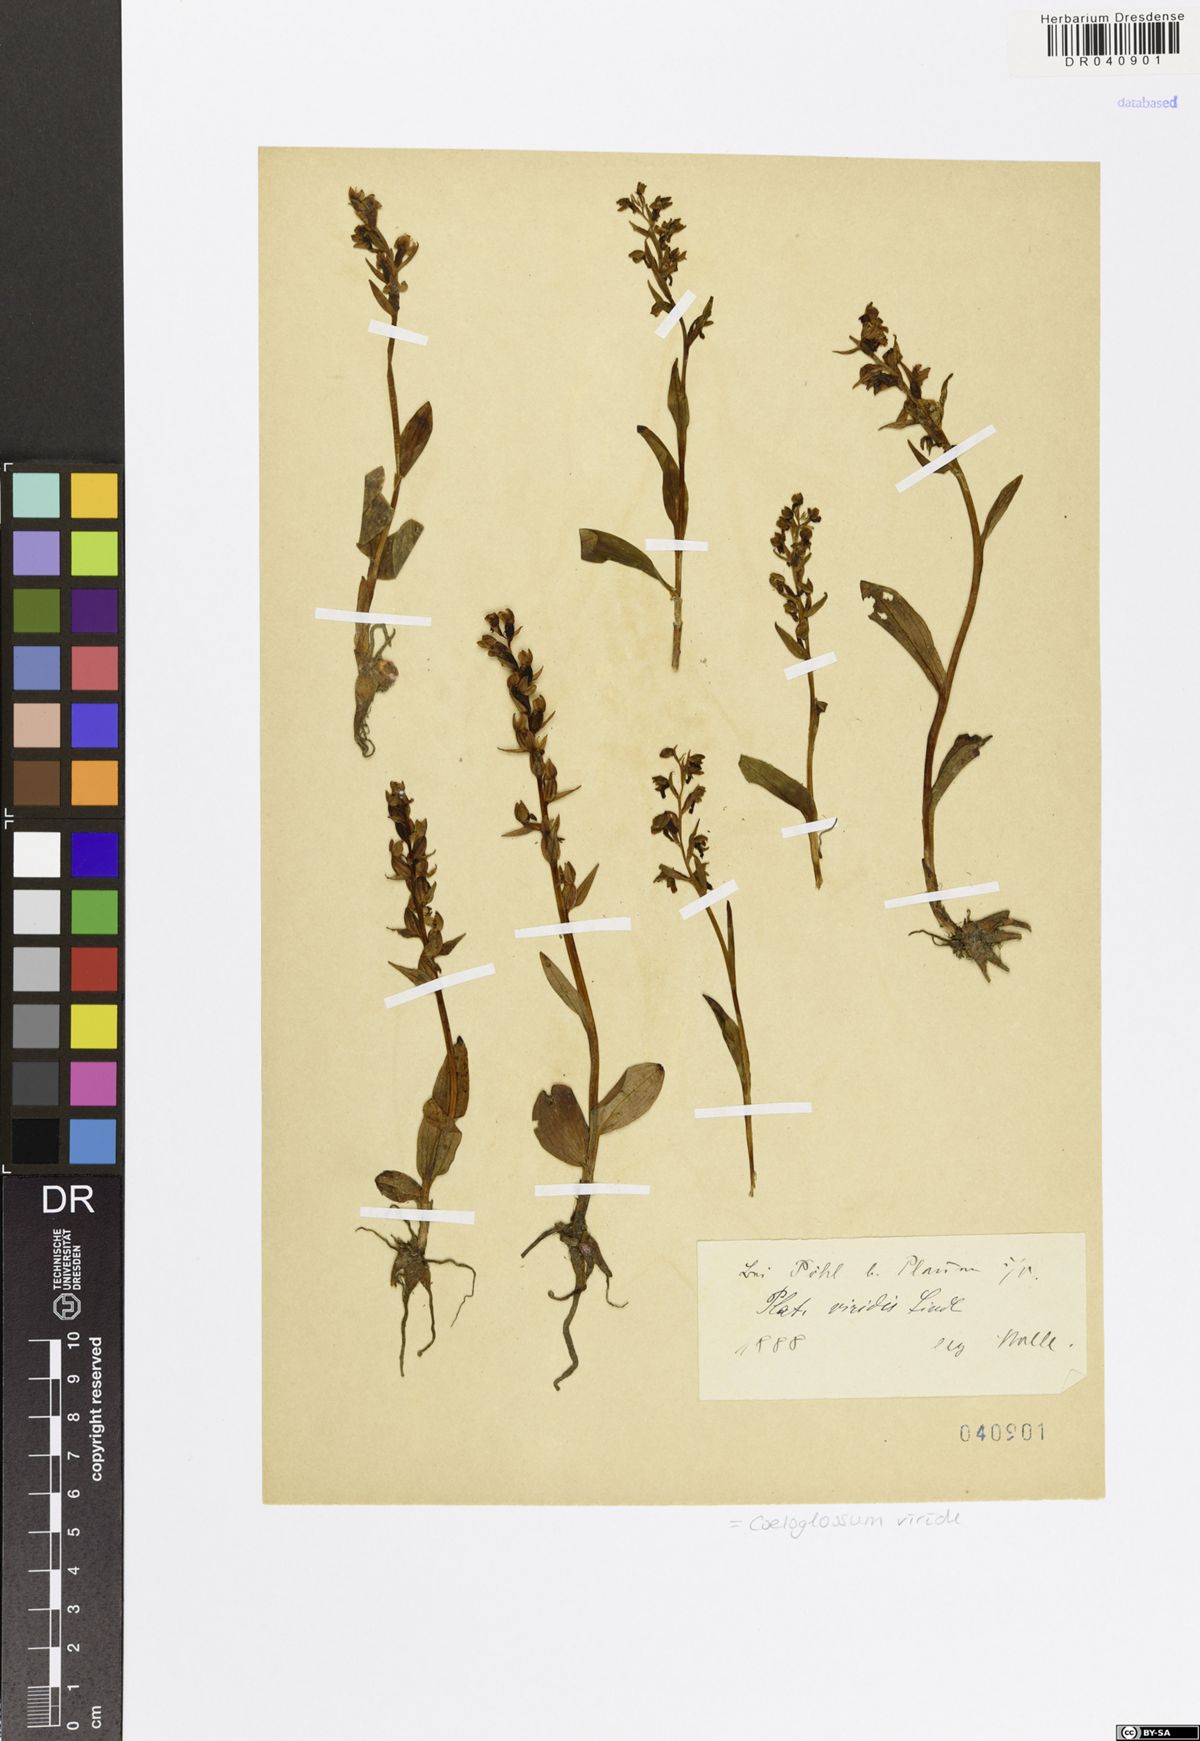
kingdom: Plantae
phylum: Tracheophyta
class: Liliopsida
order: Asparagales
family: Orchidaceae
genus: Dactylorhiza
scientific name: Dactylorhiza viridis
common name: Longbract frog orchid
